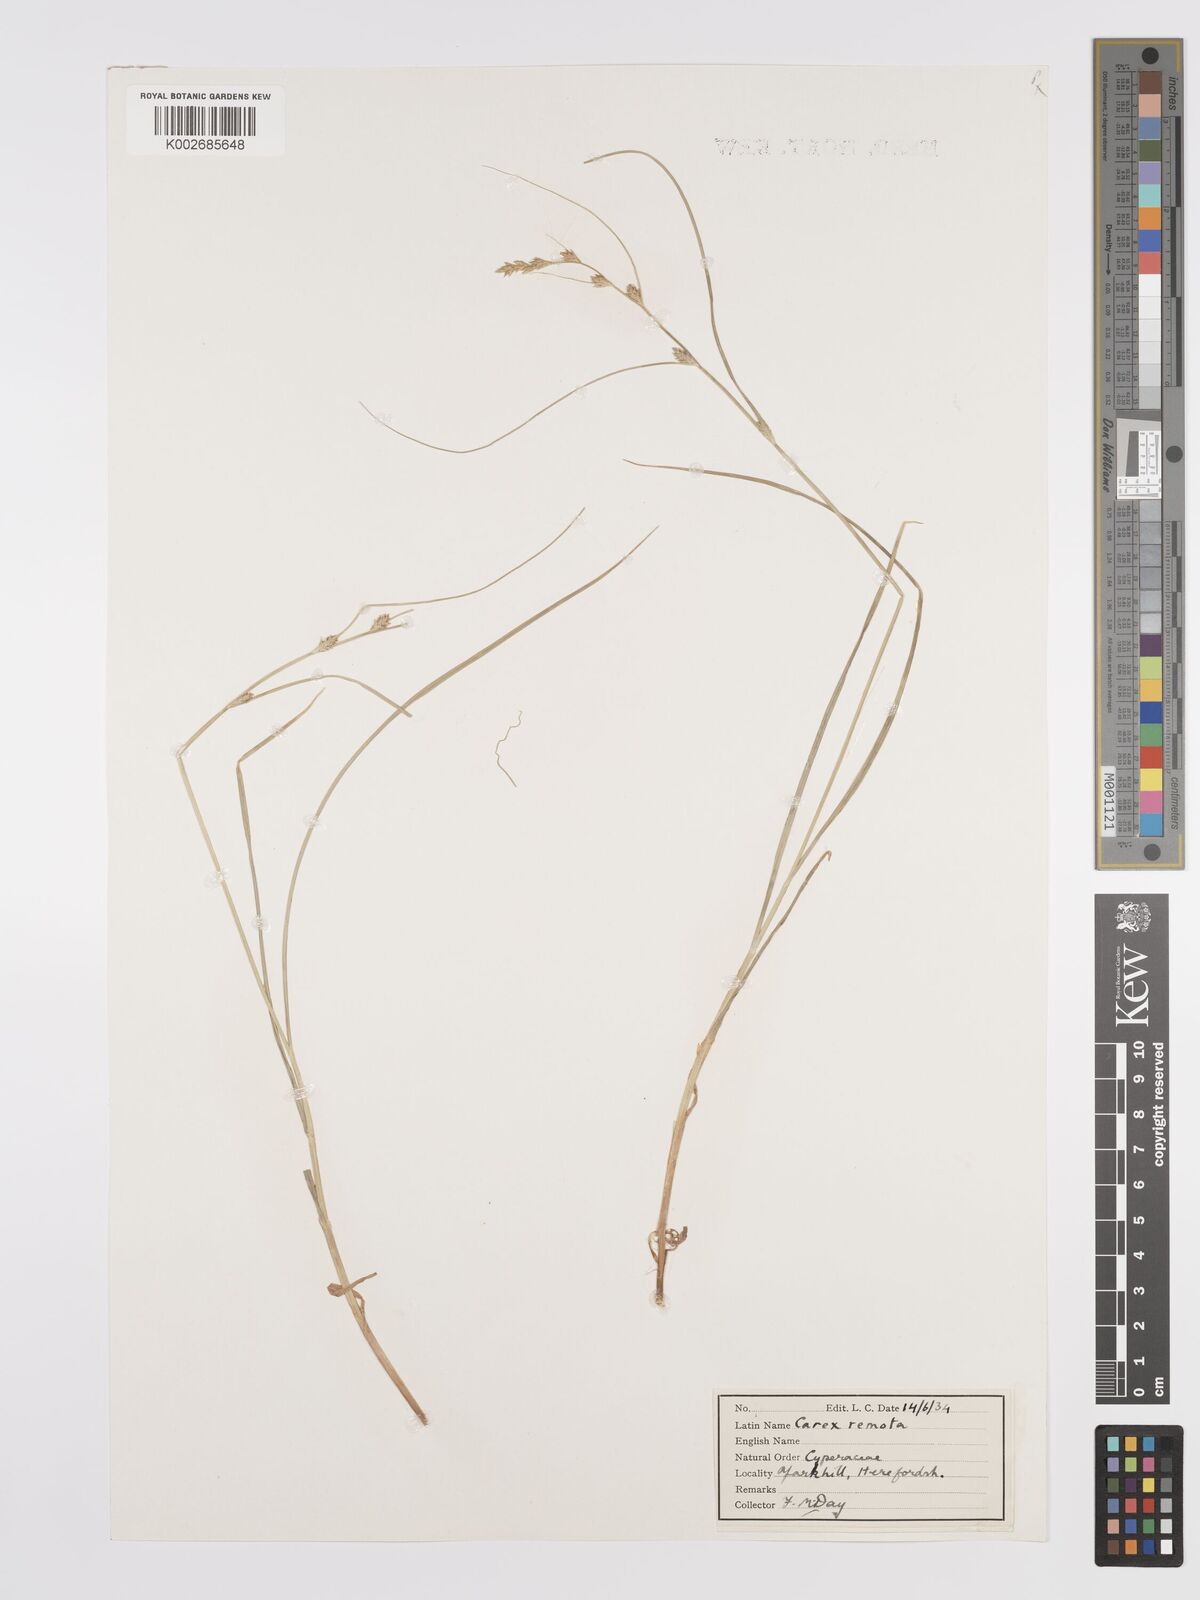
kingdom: Plantae
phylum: Tracheophyta
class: Liliopsida
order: Poales
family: Cyperaceae
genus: Carex
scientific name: Carex remota
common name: Remote sedge
